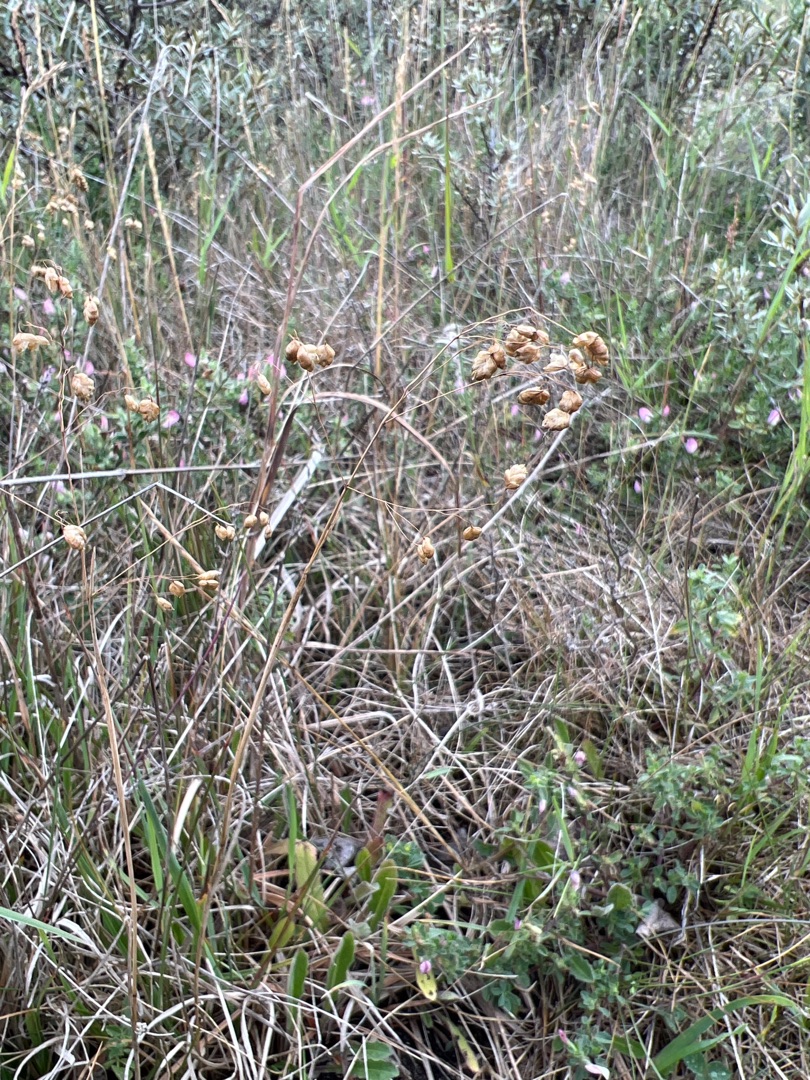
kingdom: Plantae
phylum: Tracheophyta
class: Liliopsida
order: Poales
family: Poaceae
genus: Briza
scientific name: Briza media
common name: Hjertegræs
